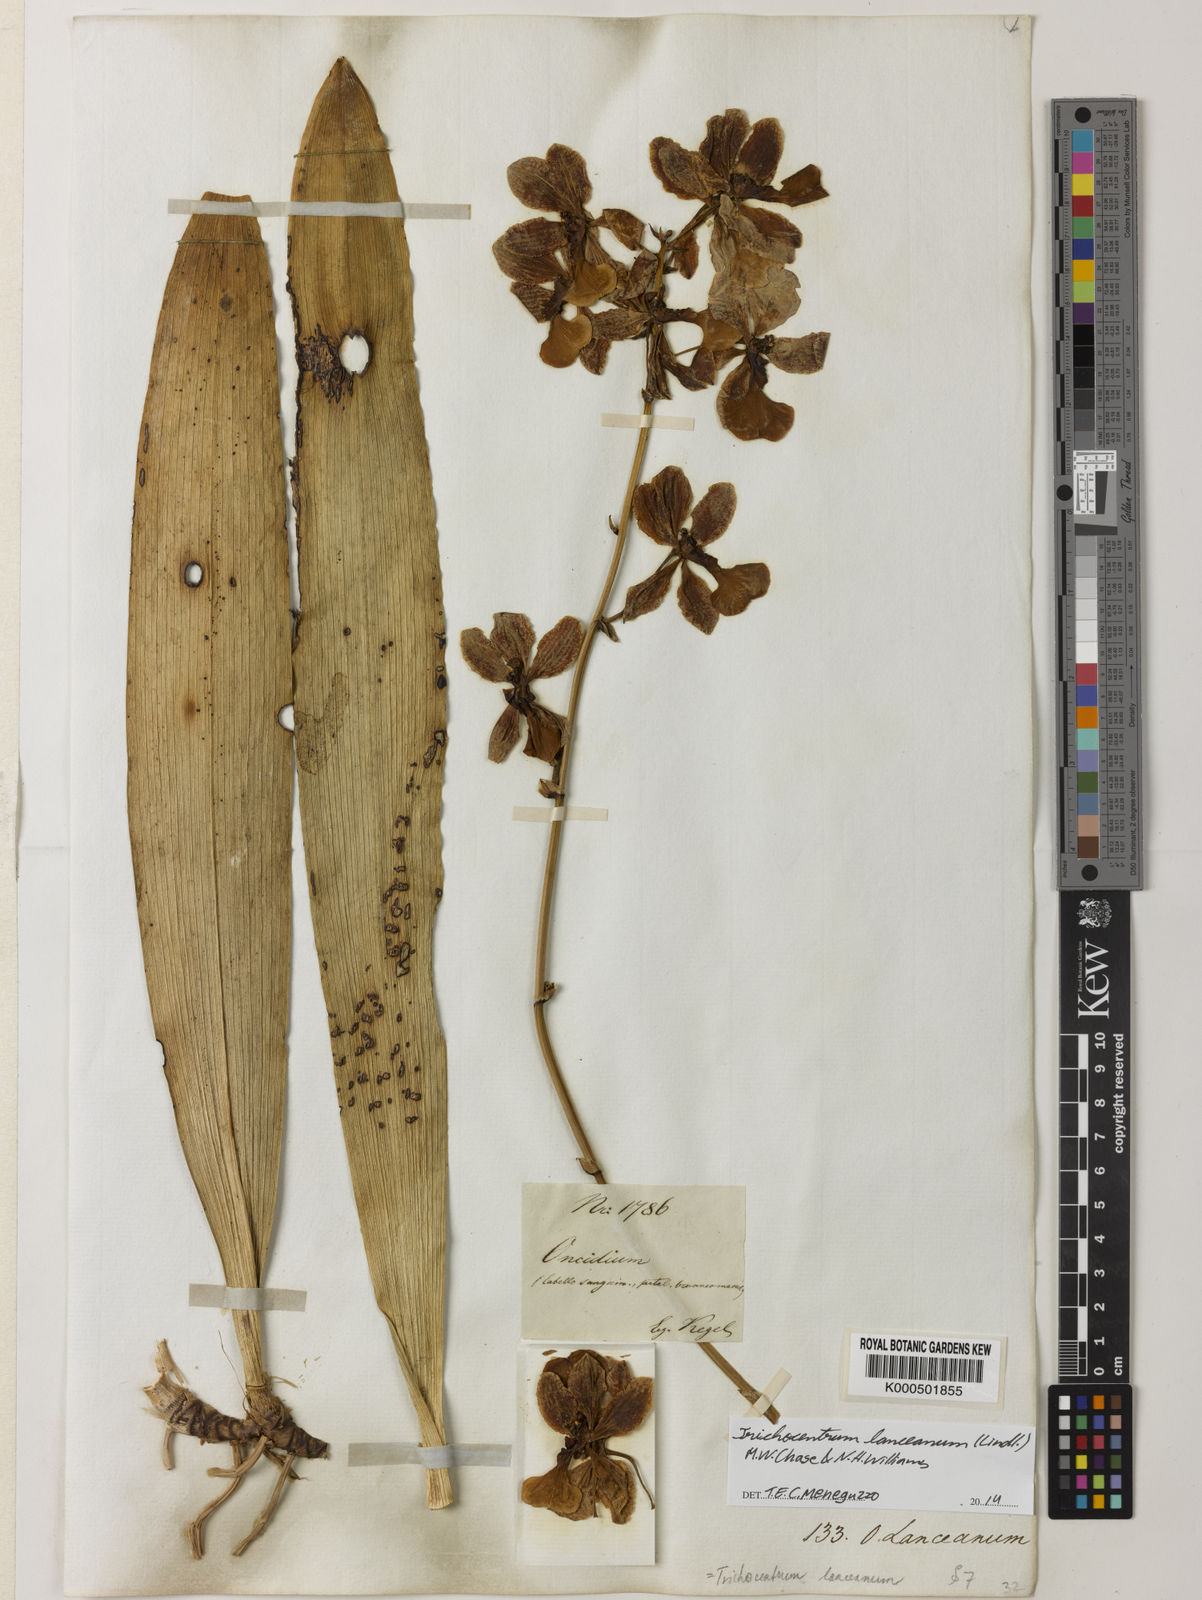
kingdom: Plantae
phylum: Tracheophyta
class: Liliopsida
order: Asparagales
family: Orchidaceae
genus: Trichocentrum
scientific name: Trichocentrum lanceanum
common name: Mule-ear orchid
